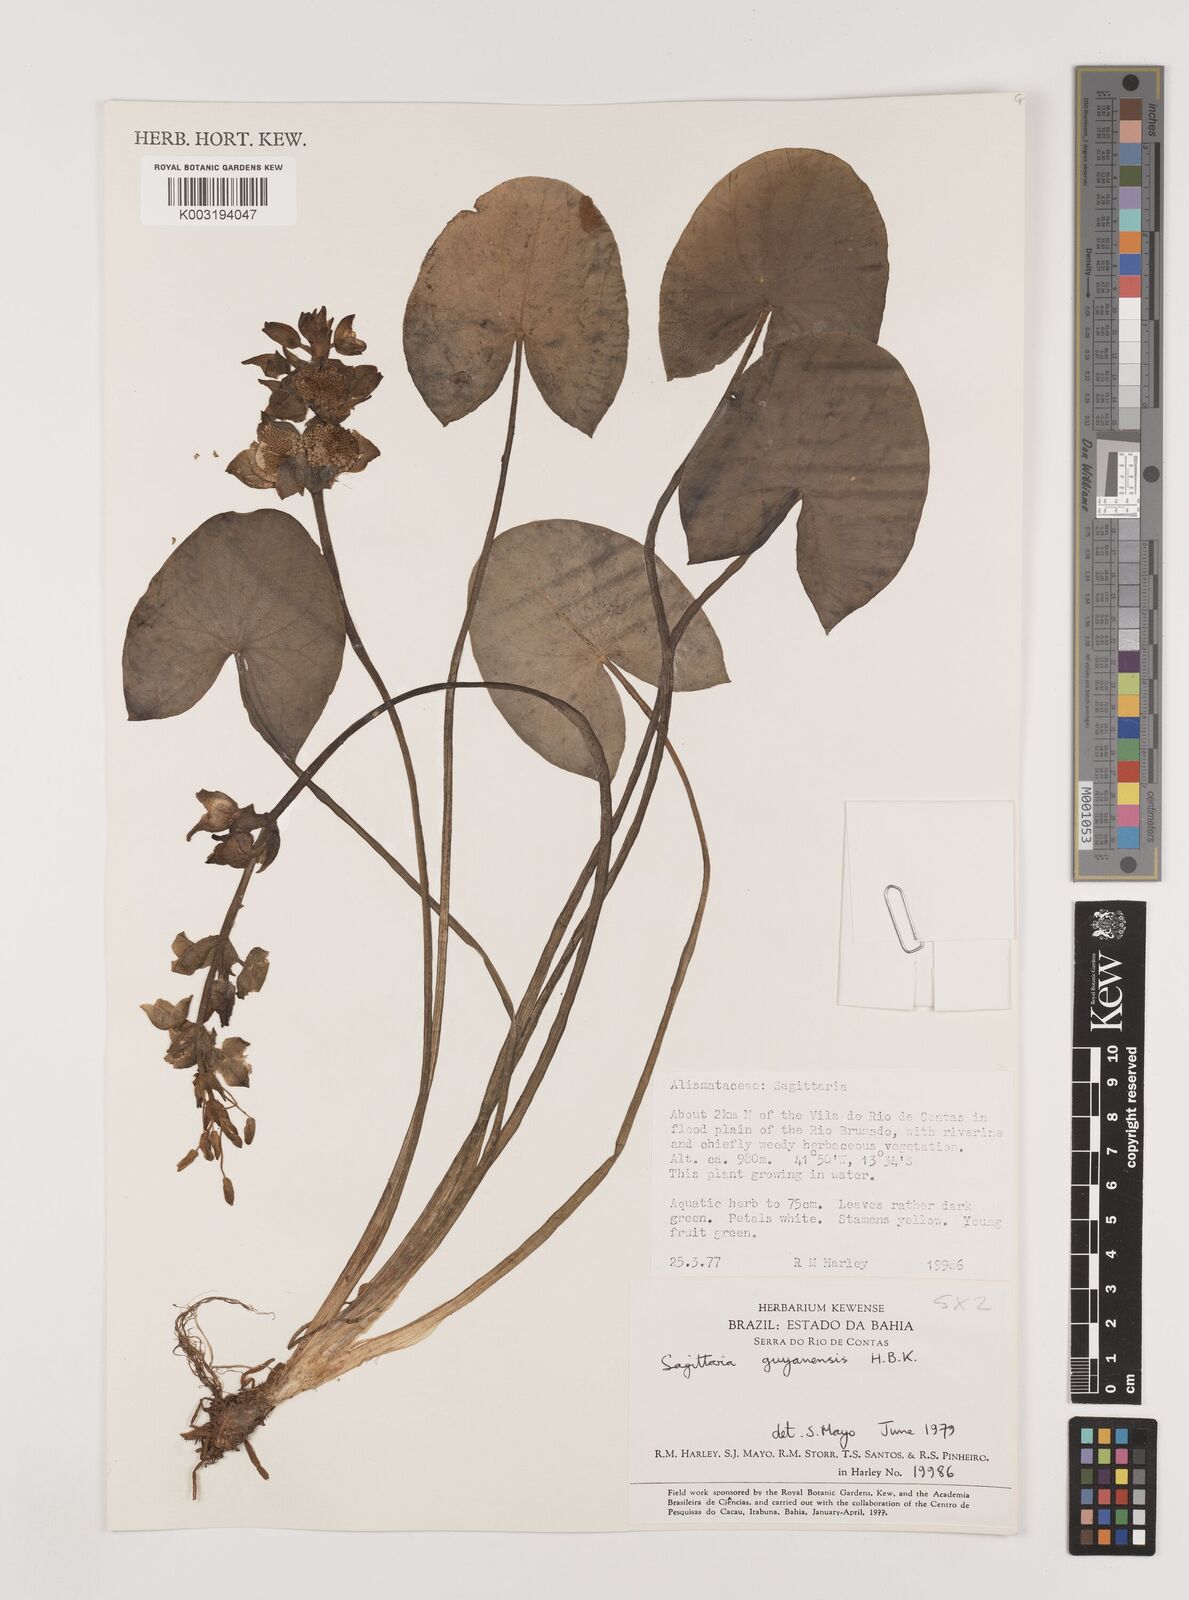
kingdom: Plantae
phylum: Tracheophyta
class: Liliopsida
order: Alismatales
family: Alismataceae
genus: Sagittaria
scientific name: Sagittaria guayanensis
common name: Guyanese arrowhead
